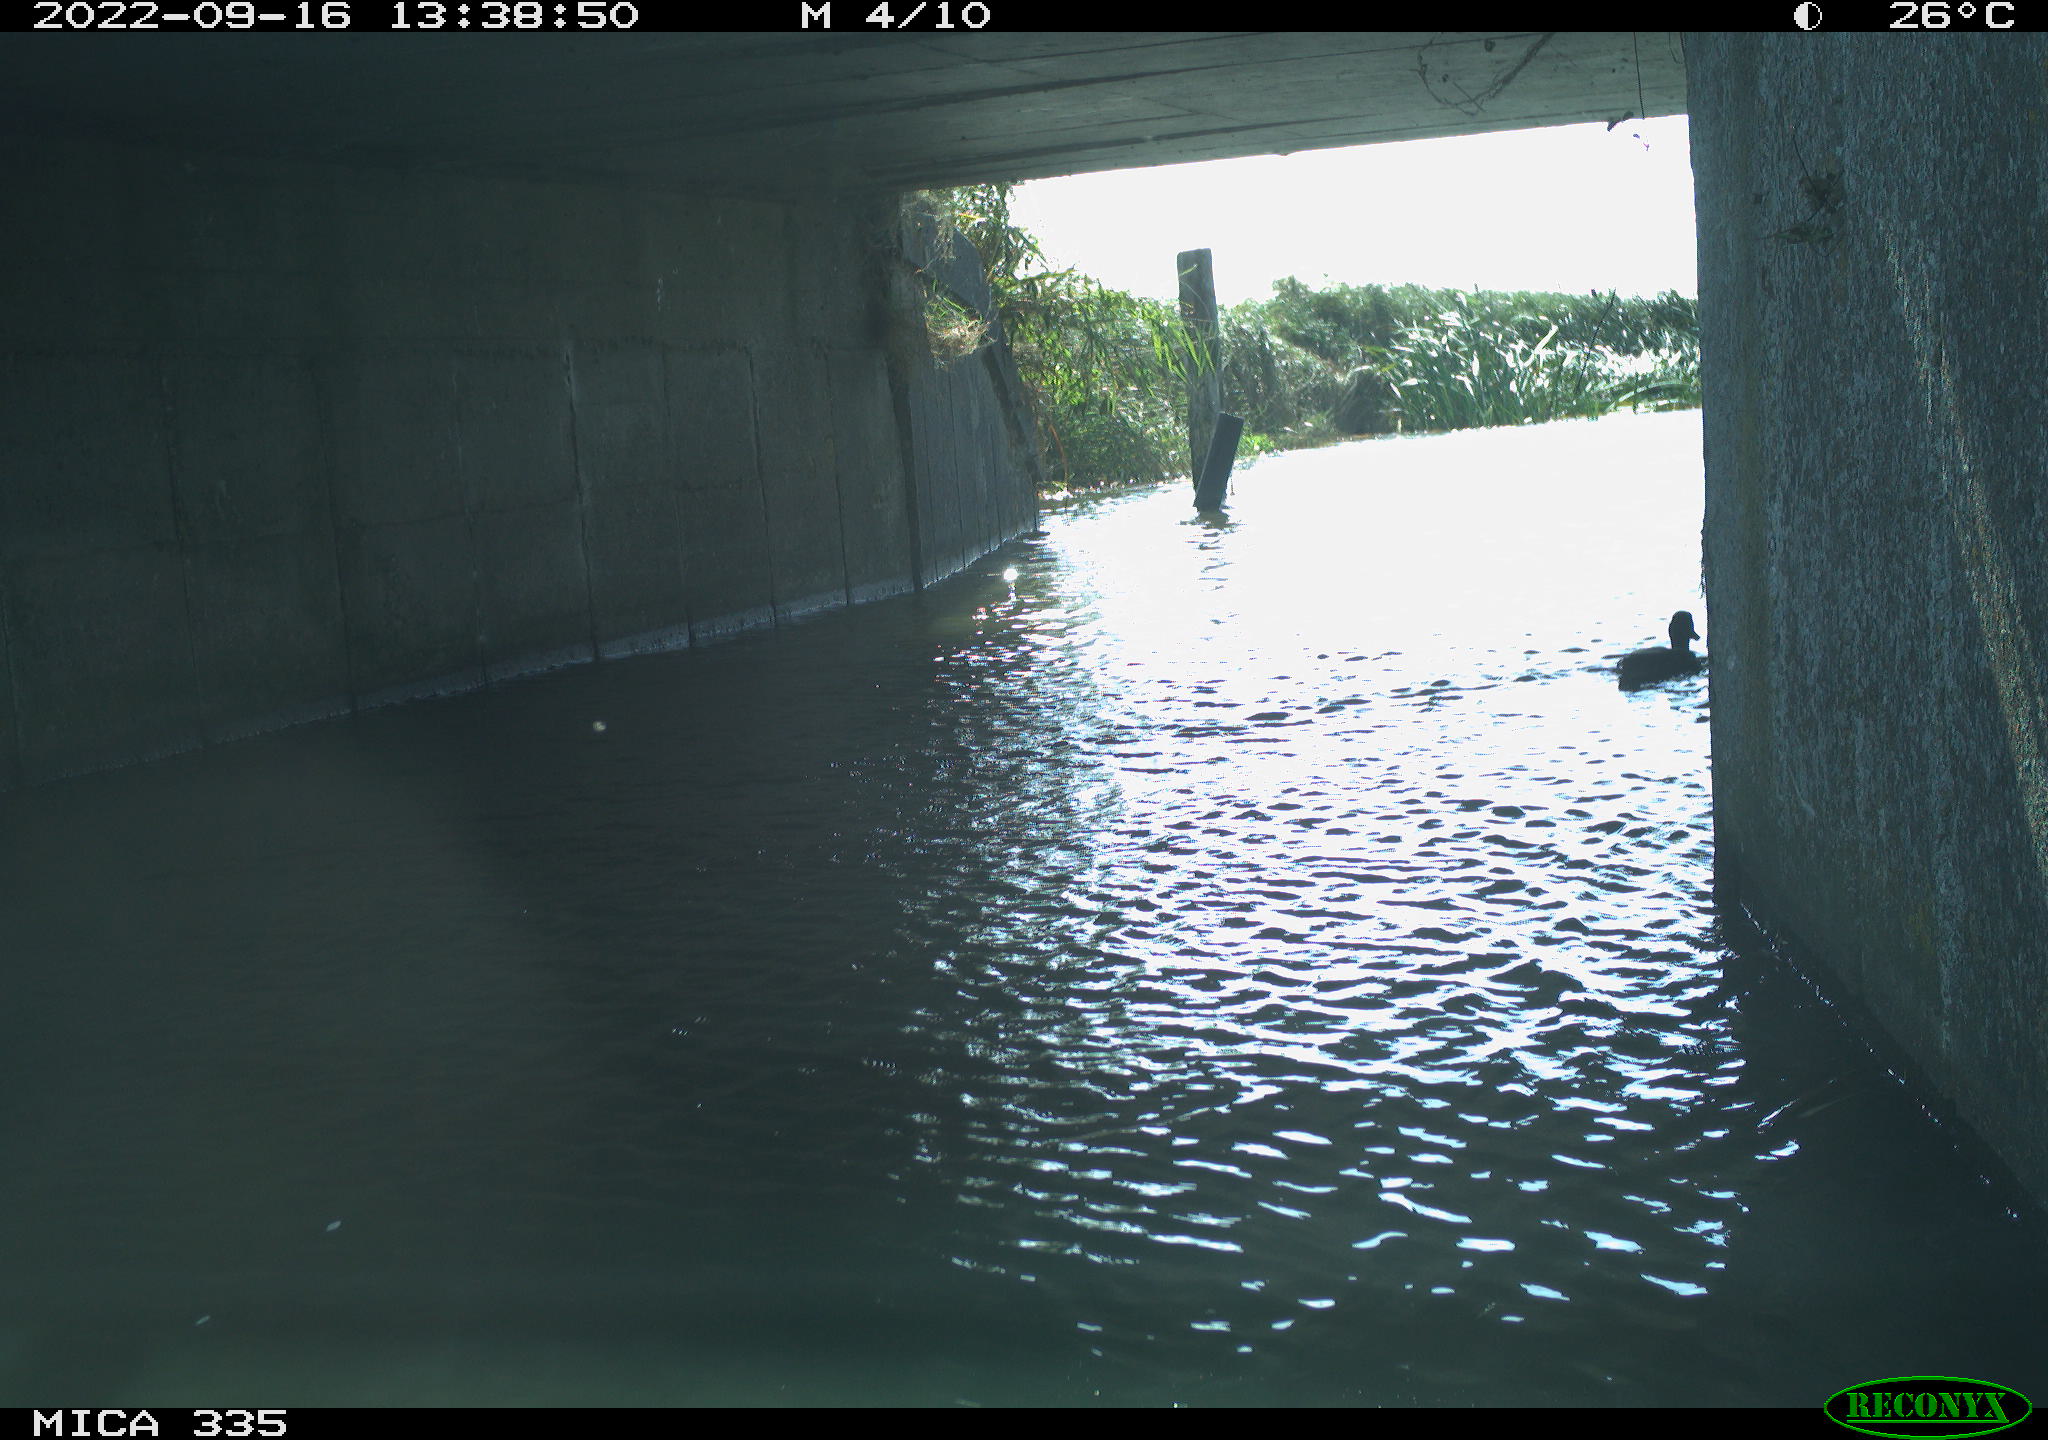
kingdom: Animalia
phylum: Chordata
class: Aves
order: Anseriformes
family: Anatidae
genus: Anas
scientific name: Anas platyrhynchos
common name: Mallard
